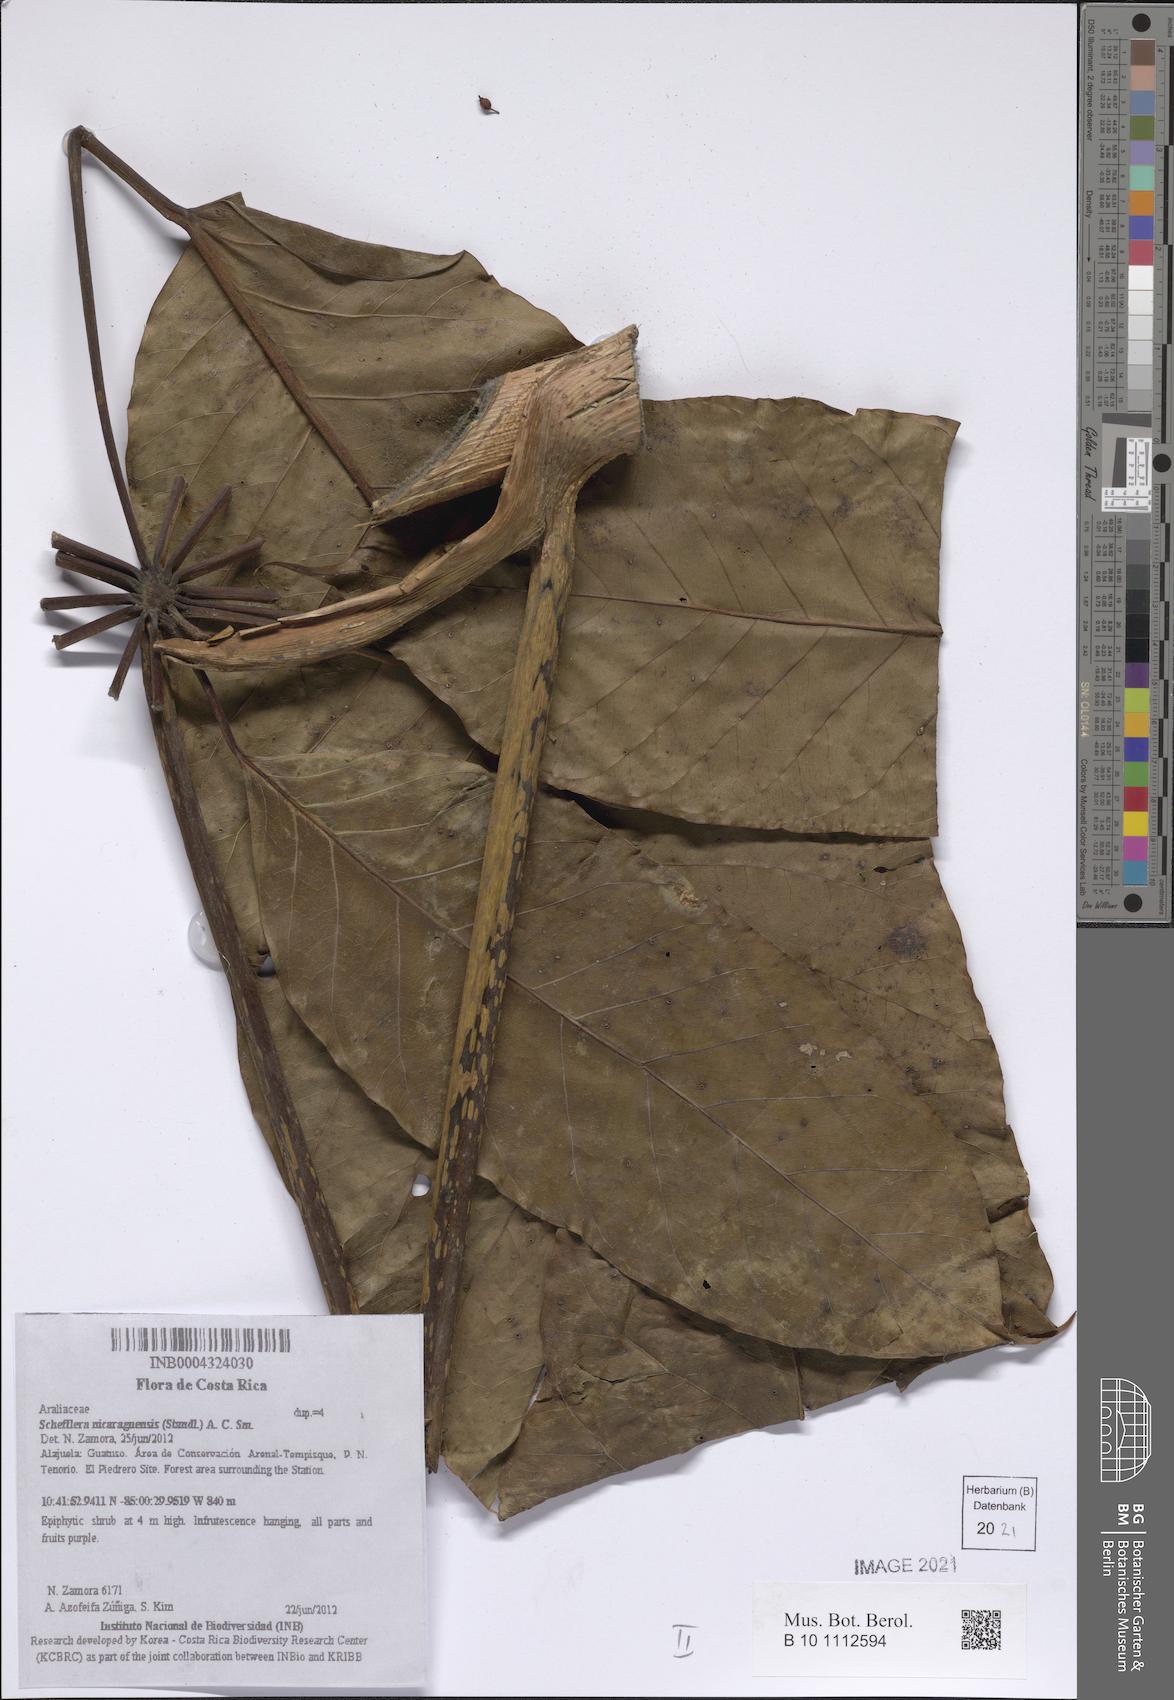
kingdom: Plantae
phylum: Tracheophyta
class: Magnoliopsida
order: Apiales
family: Araliaceae
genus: Sciodaphyllum
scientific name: Sciodaphyllum sphaerocoma
